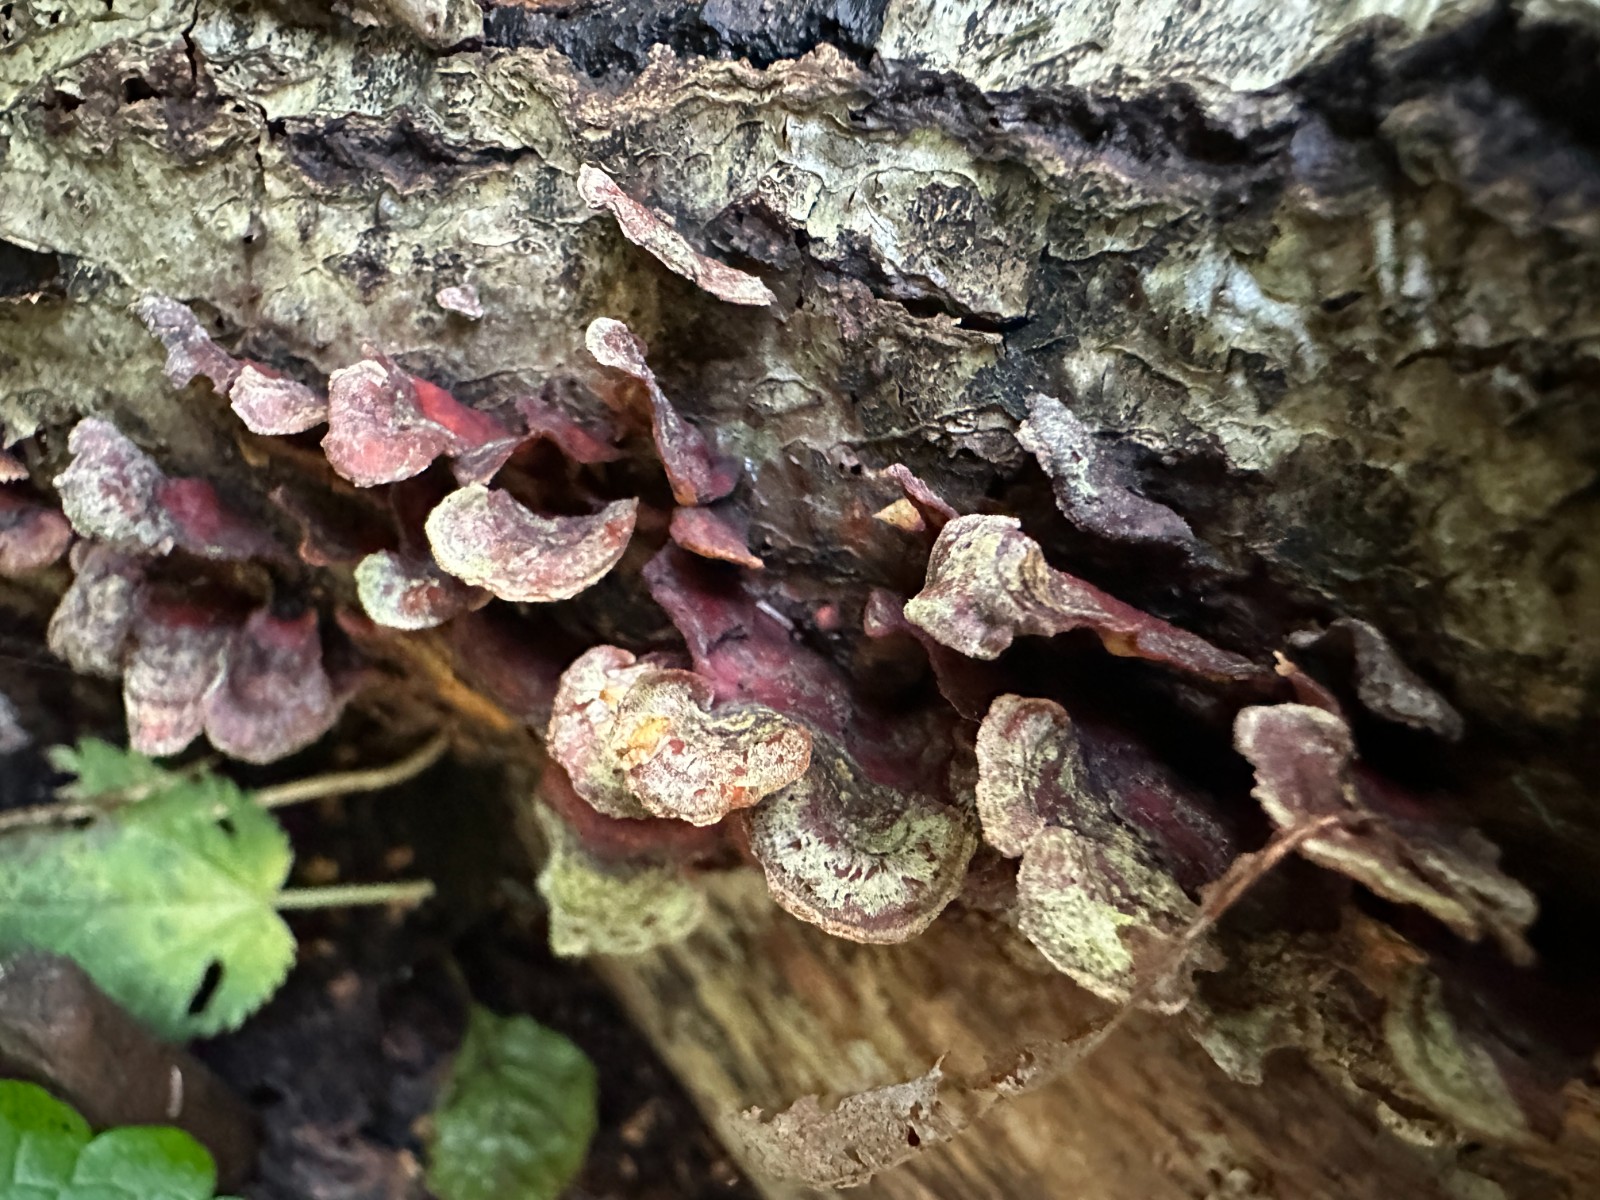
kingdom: Fungi
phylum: Basidiomycota
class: Agaricomycetes
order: Russulales
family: Stereaceae
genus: Stereum
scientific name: Stereum hirsutum
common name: håret lædersvamp
